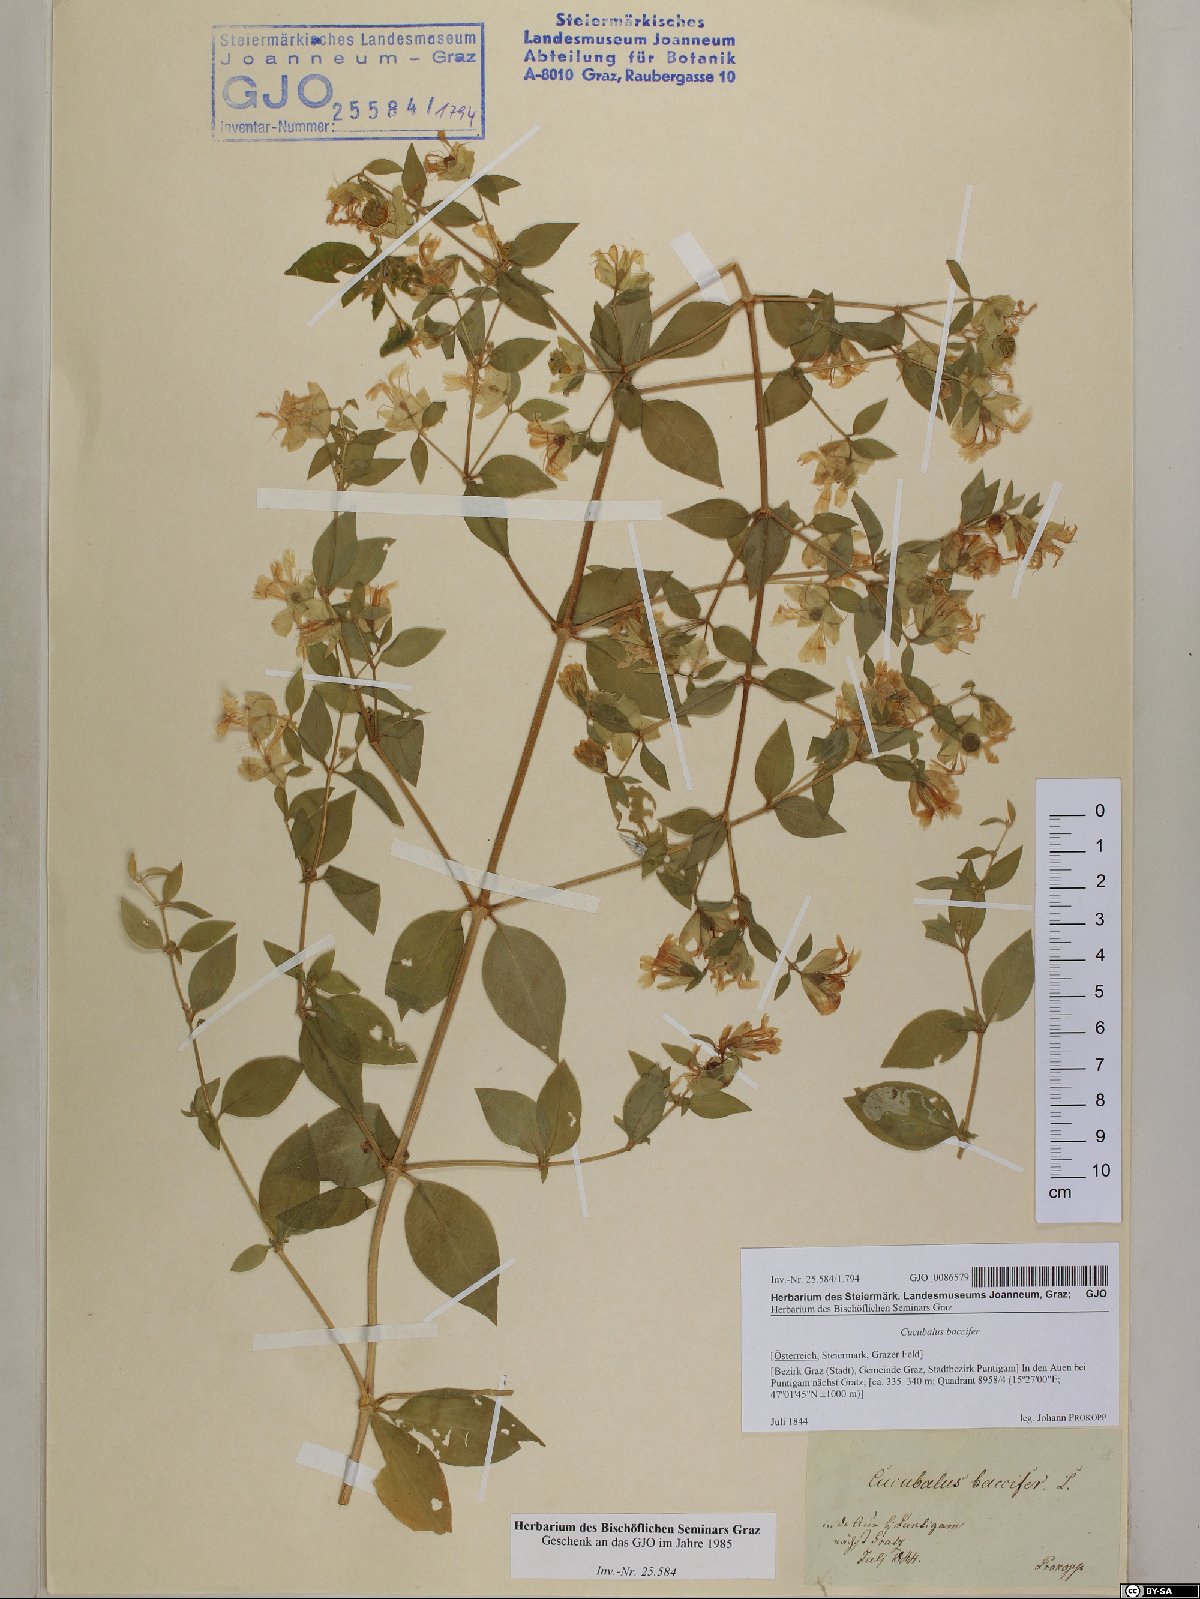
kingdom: Plantae
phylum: Tracheophyta
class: Magnoliopsida
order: Caryophyllales
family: Caryophyllaceae
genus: Silene
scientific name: Silene baccifera
